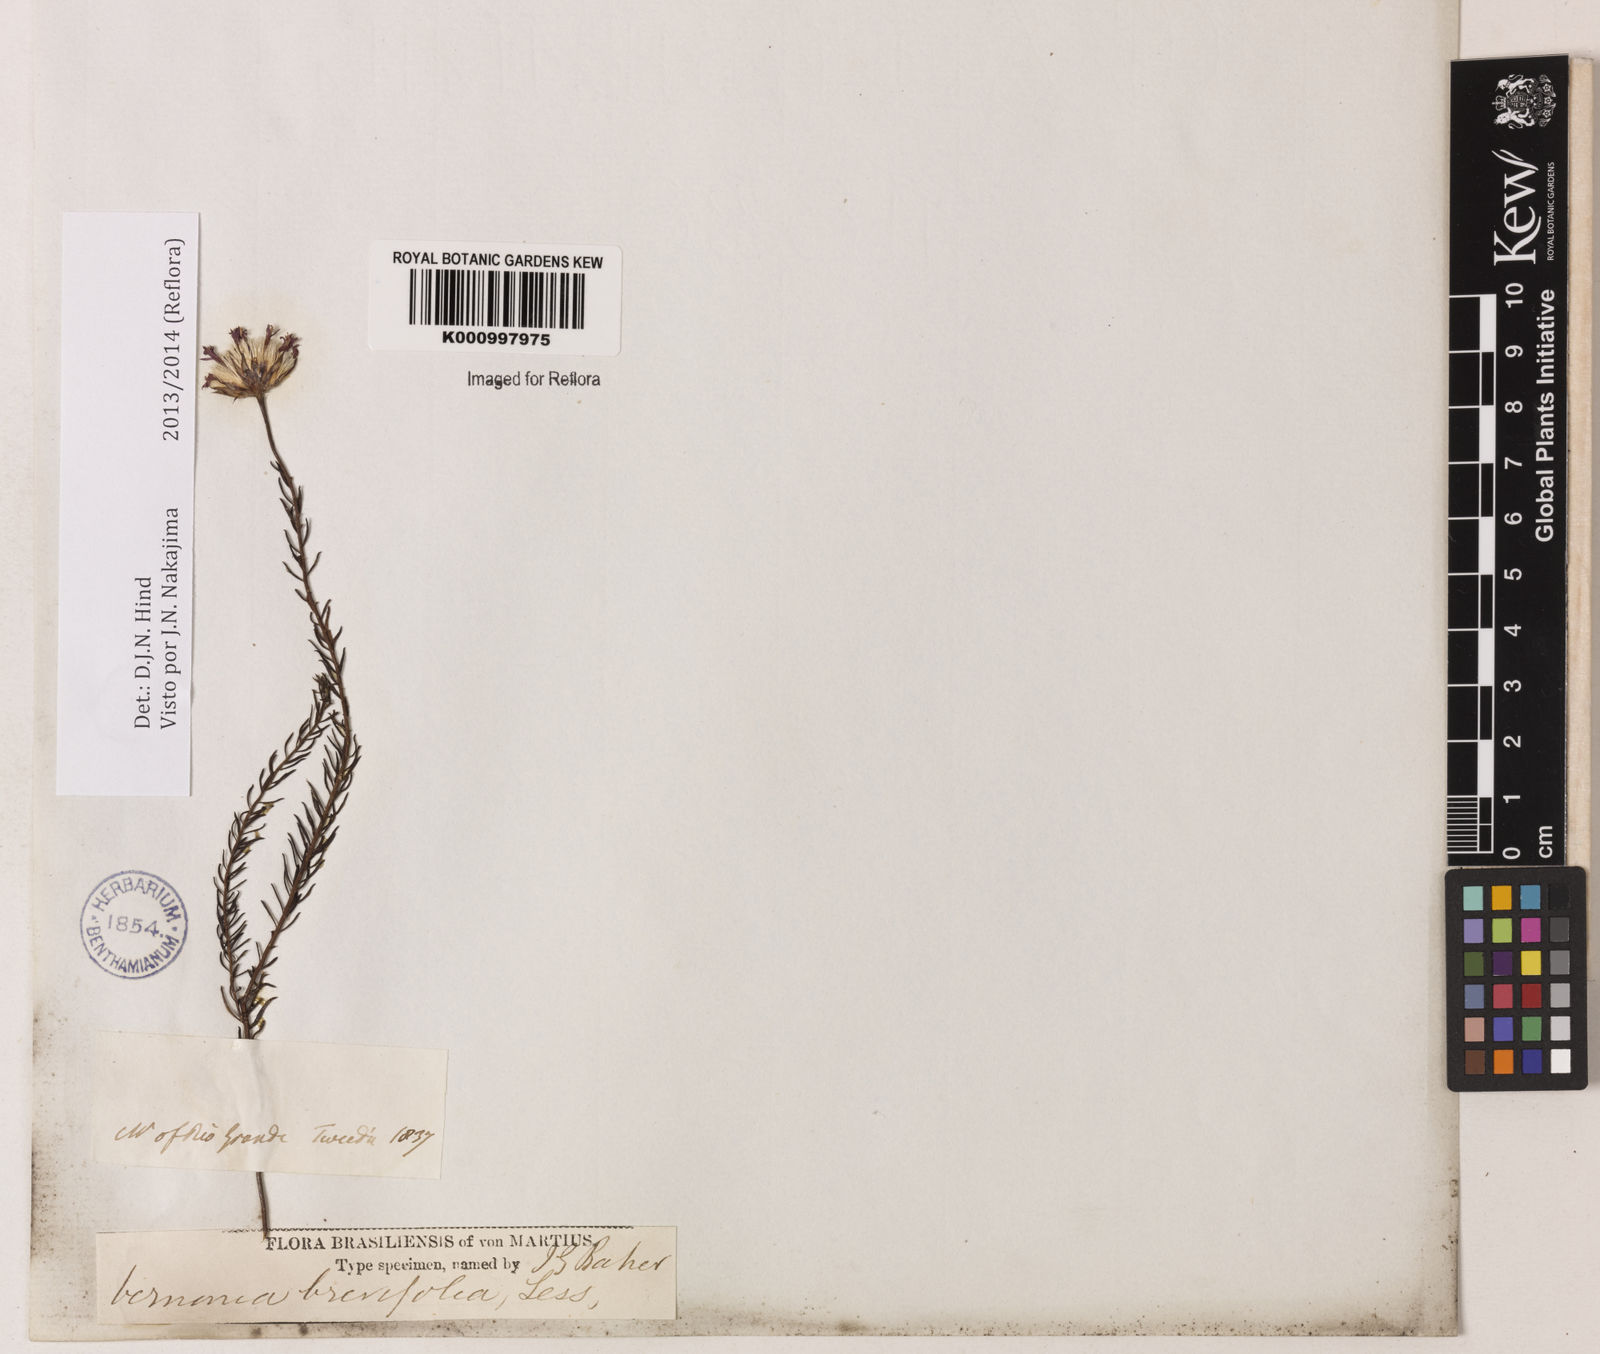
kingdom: Plantae
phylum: Tracheophyta
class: Magnoliopsida
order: Asterales
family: Asteraceae
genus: Lessingianthus
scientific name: Lessingianthus brevifolius
